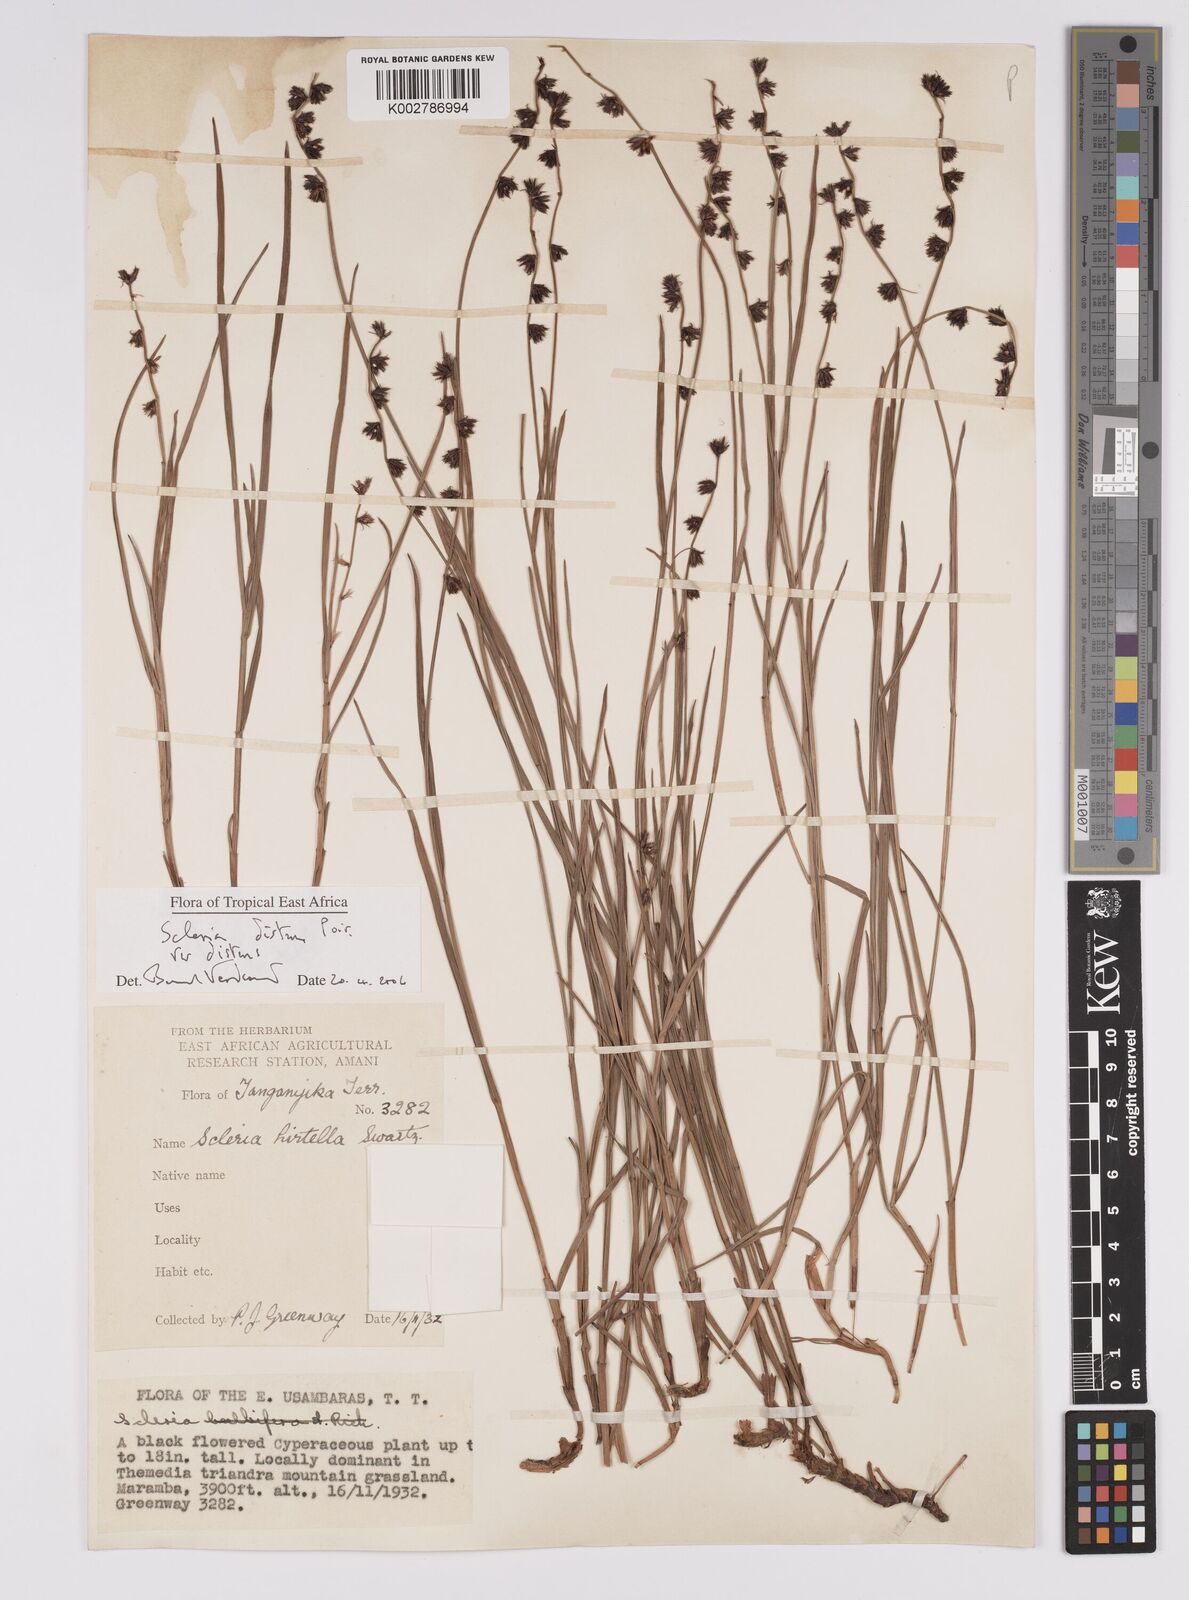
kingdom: Plantae
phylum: Tracheophyta
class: Liliopsida
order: Poales
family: Cyperaceae
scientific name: Cyperaceae
